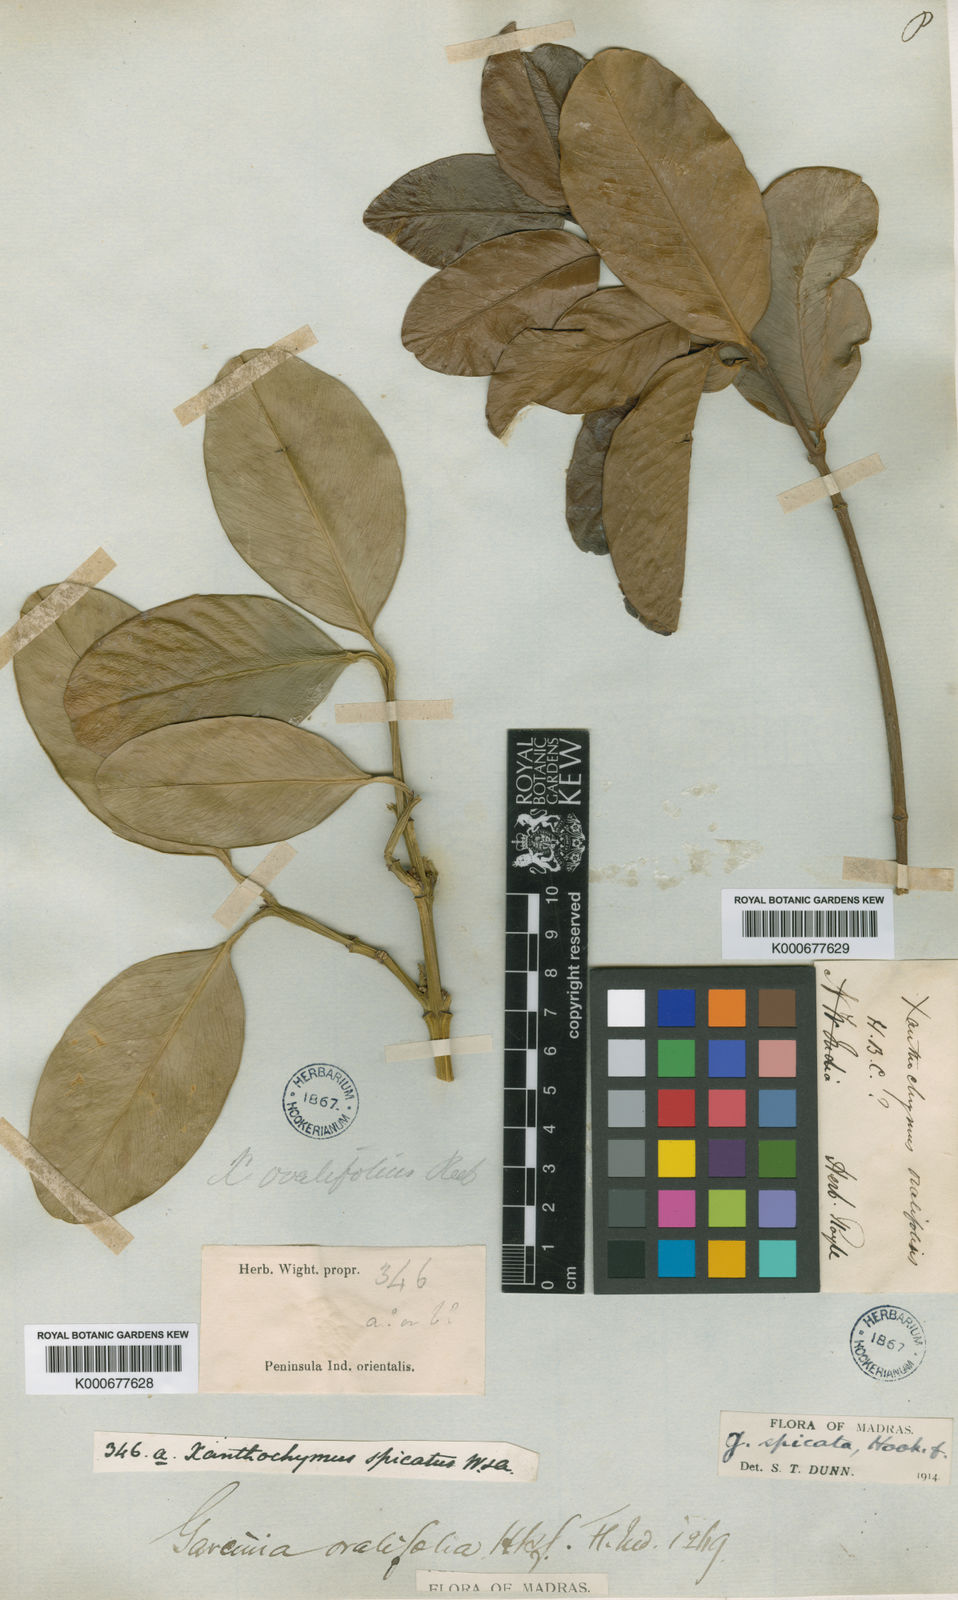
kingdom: Plantae
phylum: Tracheophyta
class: Magnoliopsida
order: Malpighiales
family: Clusiaceae
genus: Garcinia
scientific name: Garcinia ovalifolia
